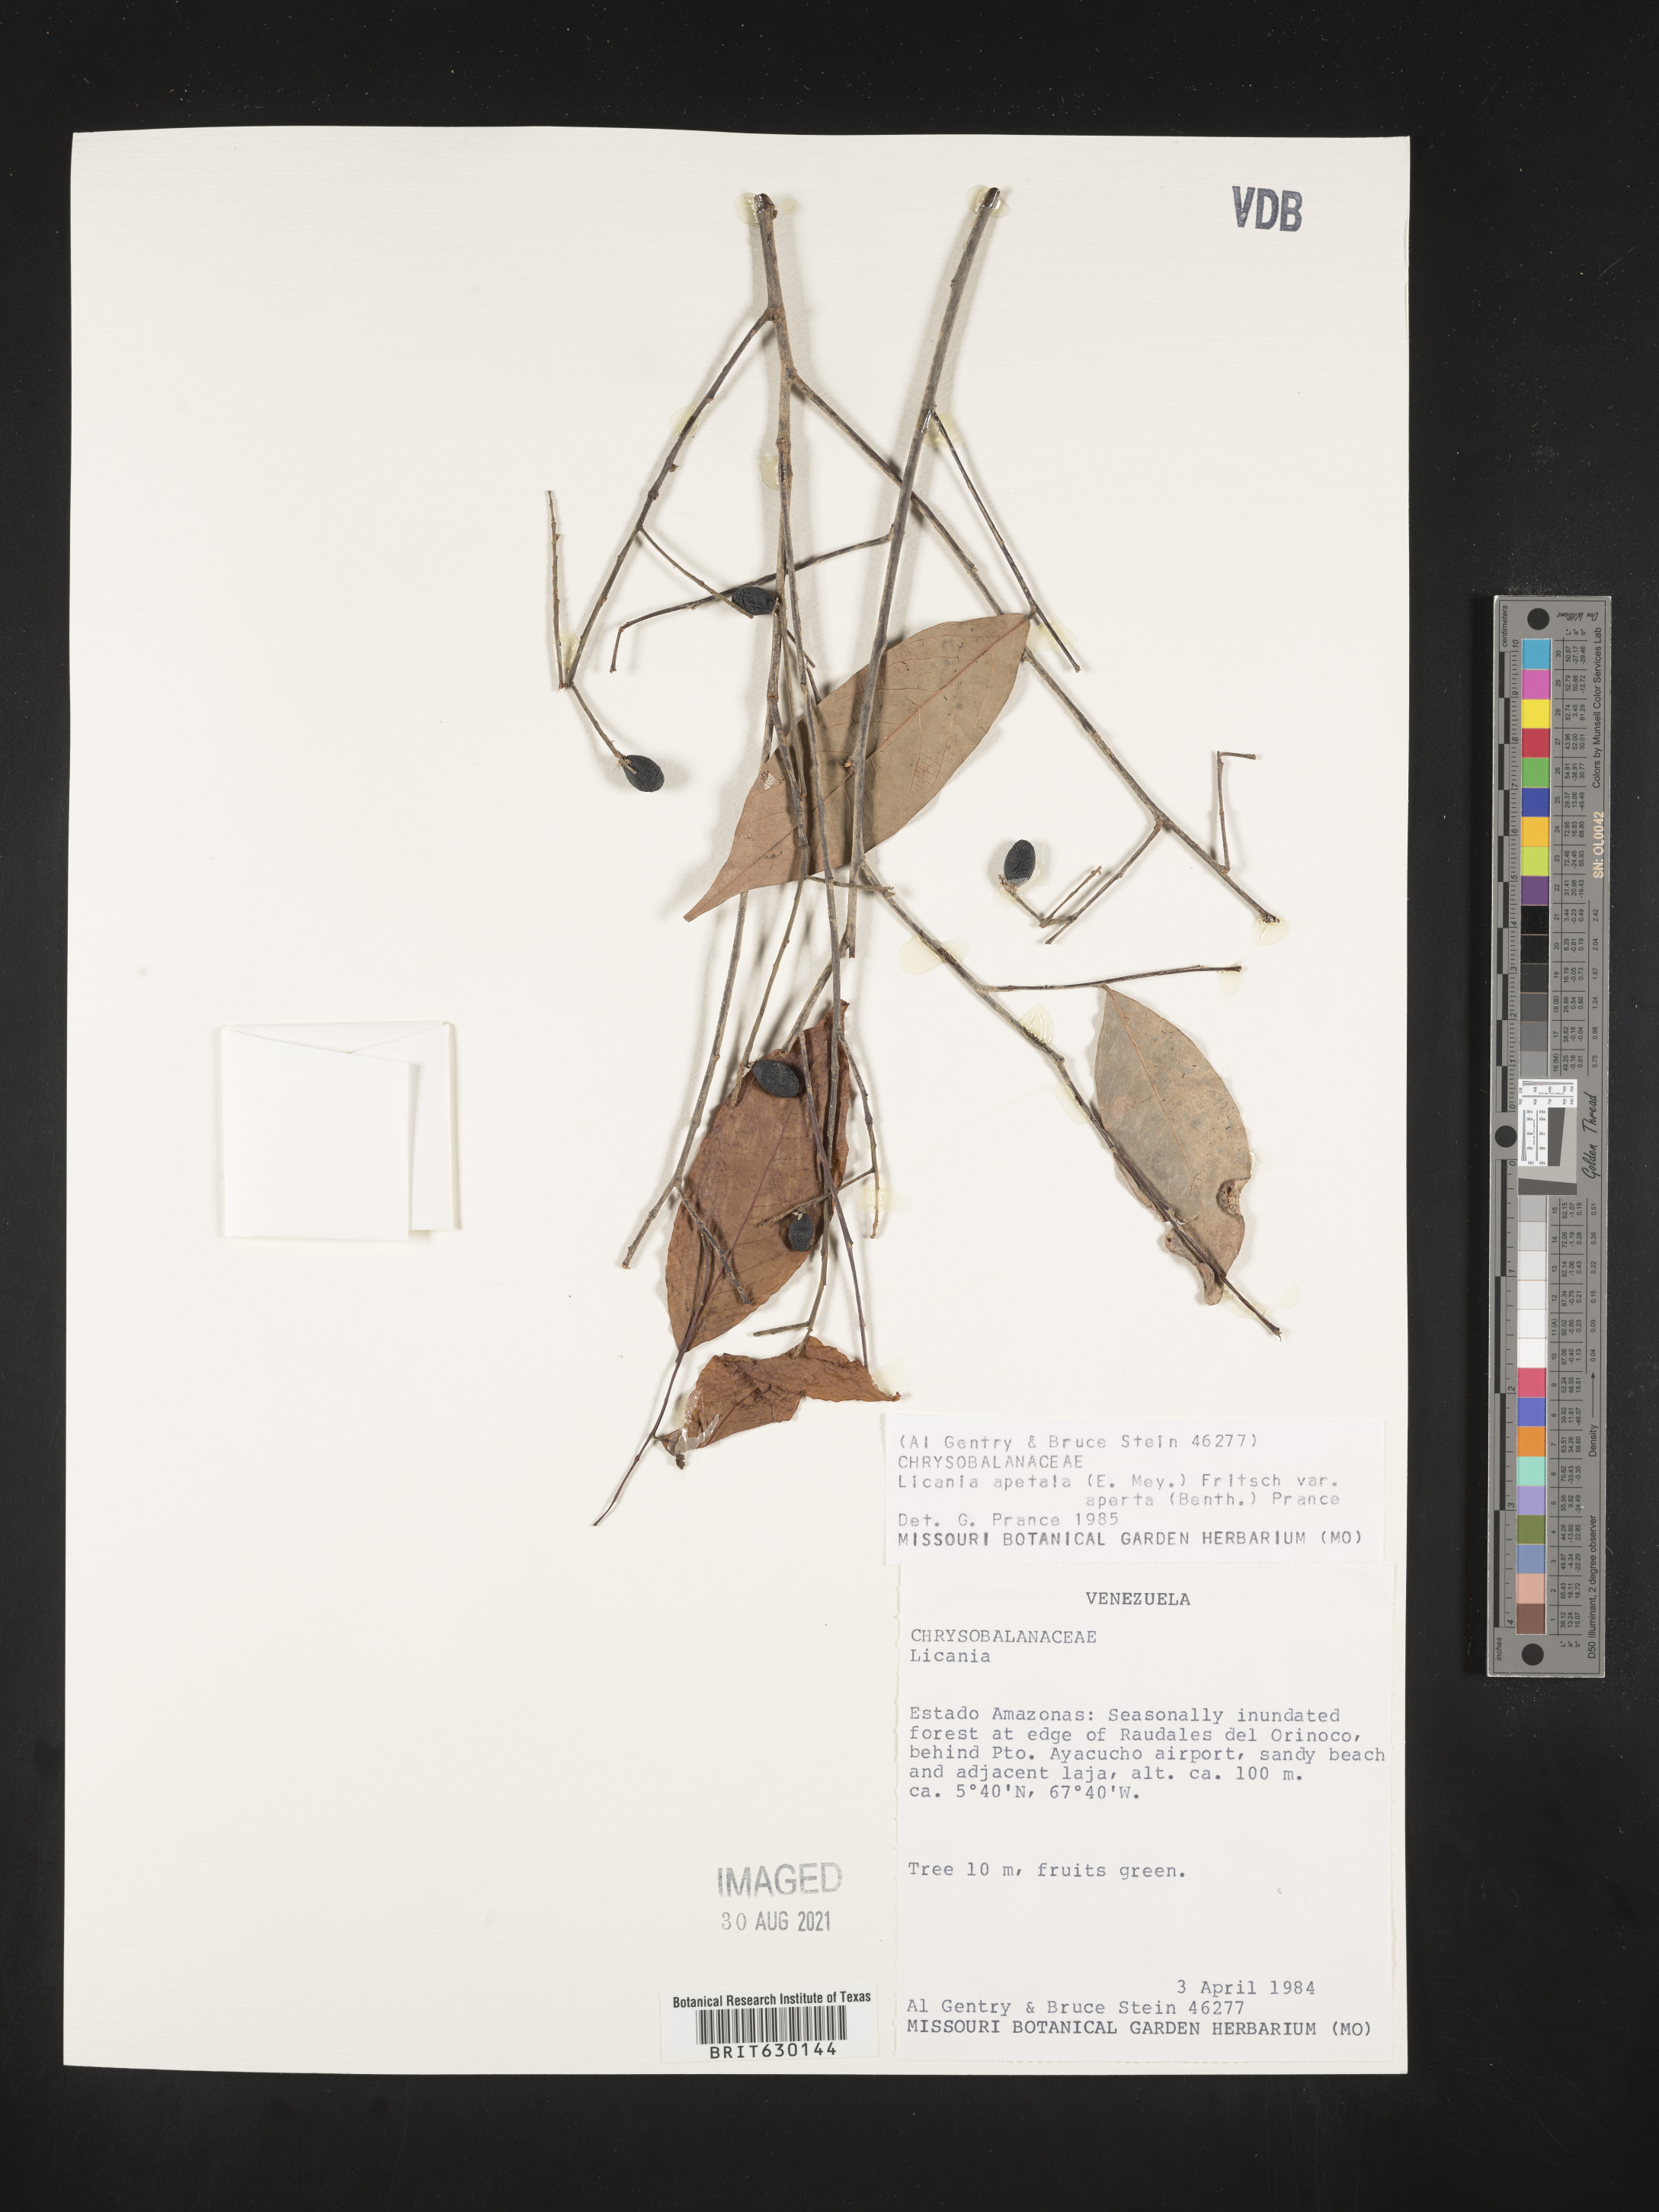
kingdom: Plantae
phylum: Tracheophyta
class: Magnoliopsida
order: Malpighiales
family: Chrysobalanaceae
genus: Leptobalanus
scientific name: Leptobalanus apetalus
